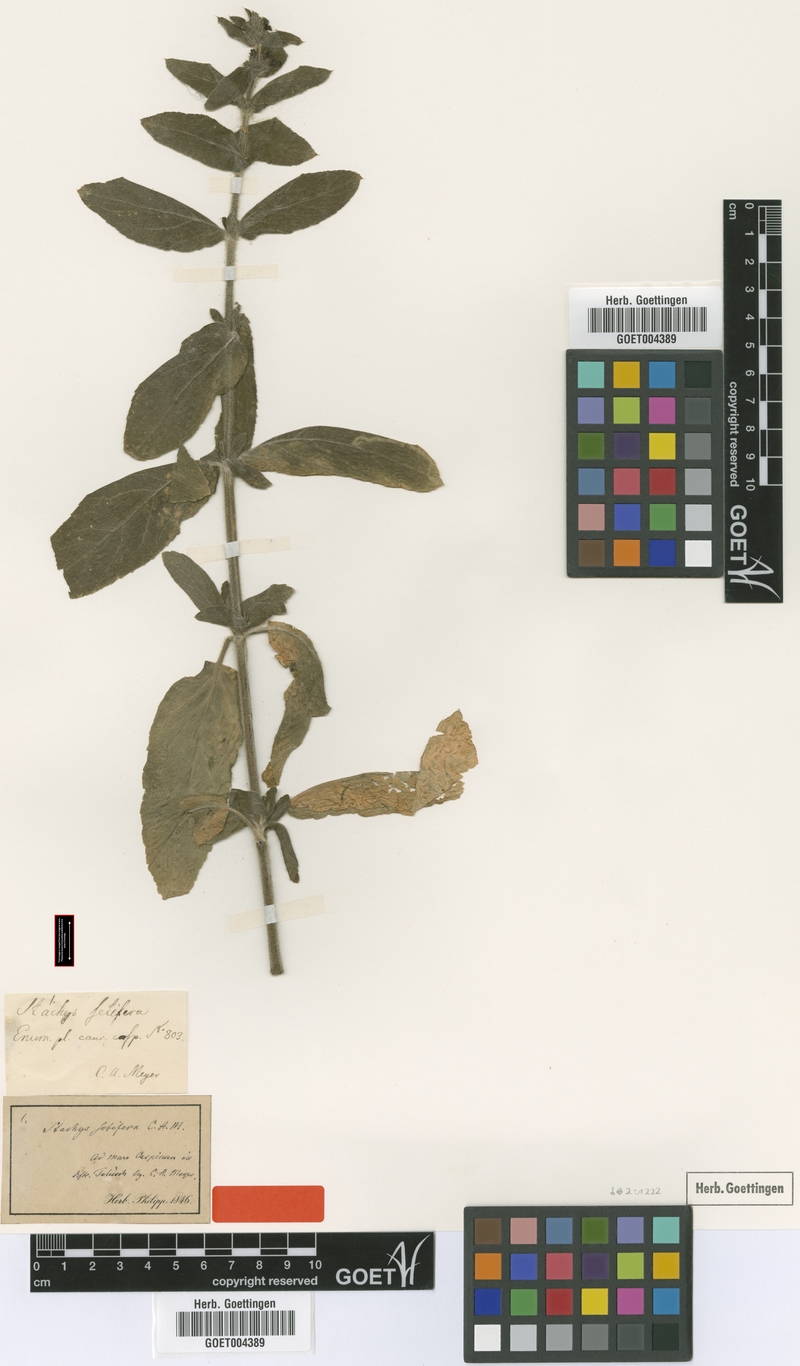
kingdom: Plantae
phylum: Tracheophyta
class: Magnoliopsida
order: Lamiales
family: Lamiaceae
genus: Stachys
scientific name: Stachys setifera
